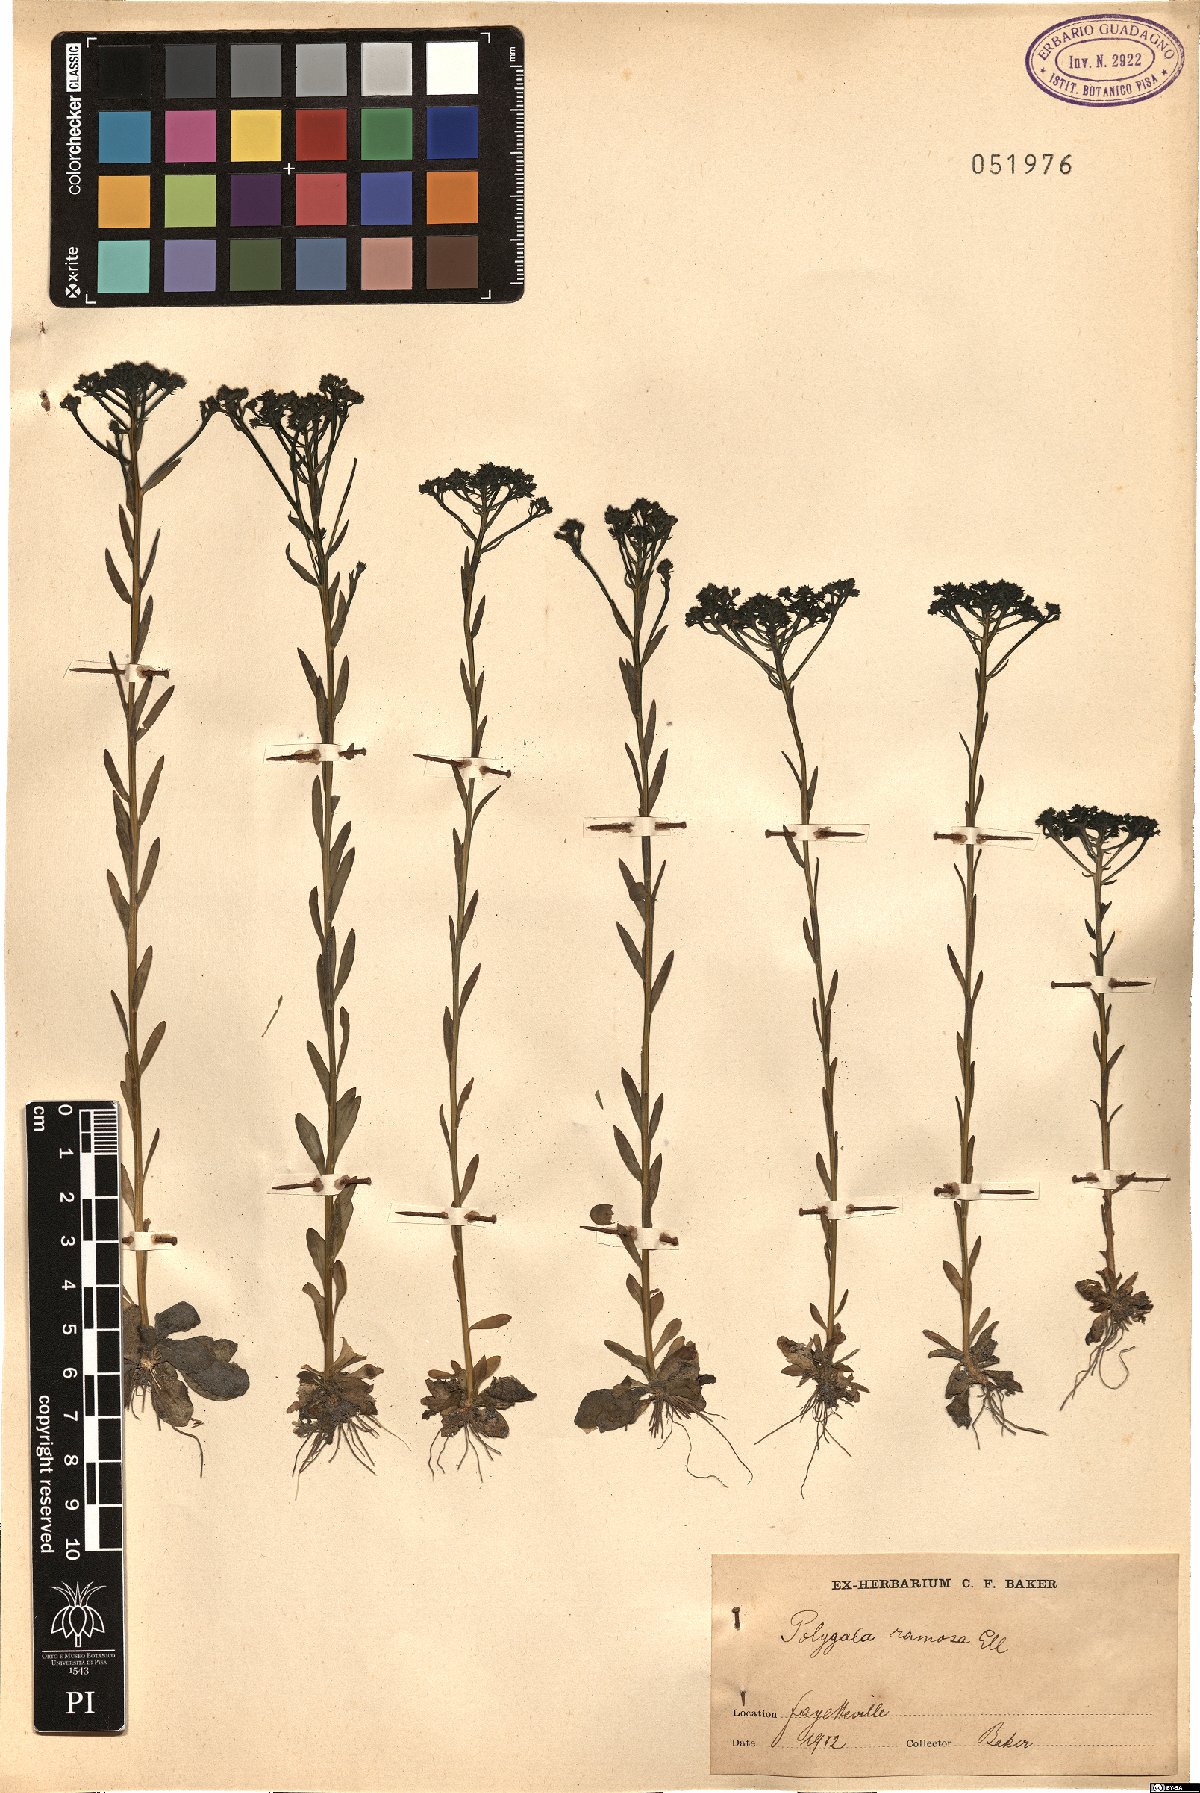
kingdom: Plantae
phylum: Tracheophyta
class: Magnoliopsida
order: Fabales
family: Polygalaceae
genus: Polygala
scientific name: Polygala amarella
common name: Dwarf milkwort
